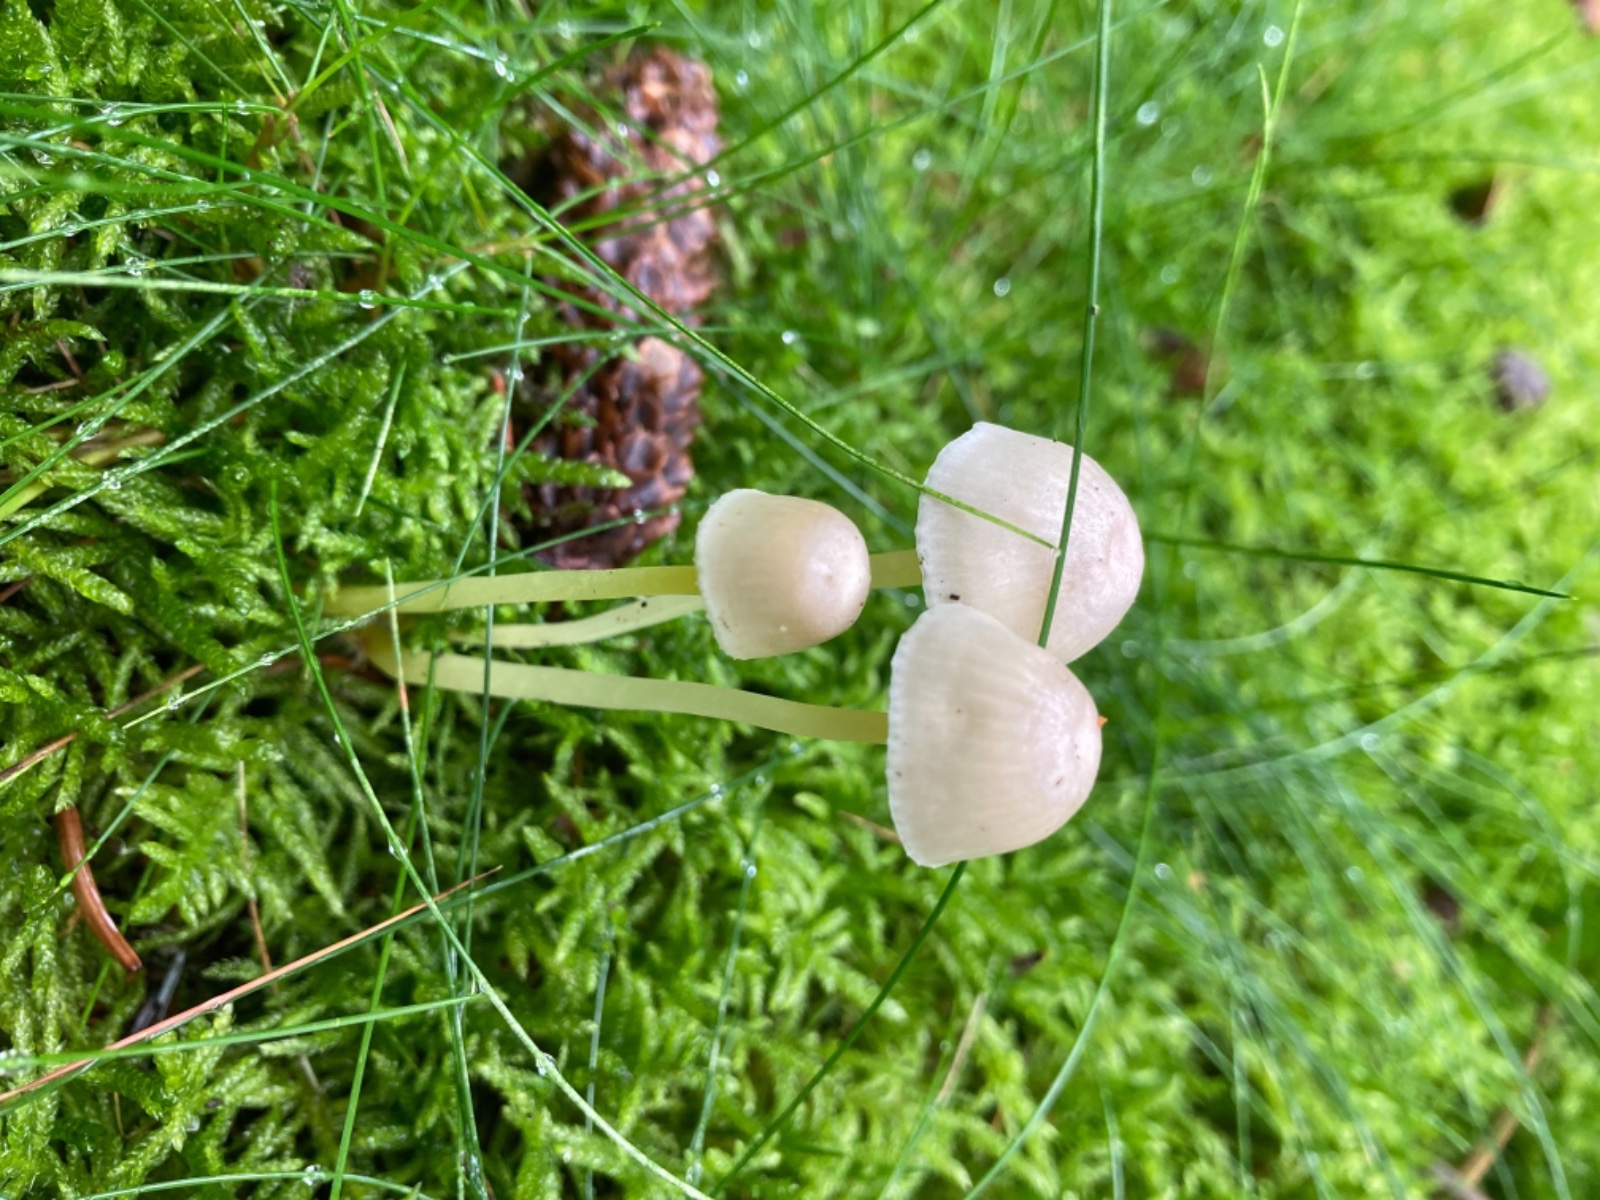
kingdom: Fungi
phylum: Basidiomycota
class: Agaricomycetes
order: Agaricales
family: Mycenaceae
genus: Mycena
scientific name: Mycena epipterygia
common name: gulstokket huesvamp
